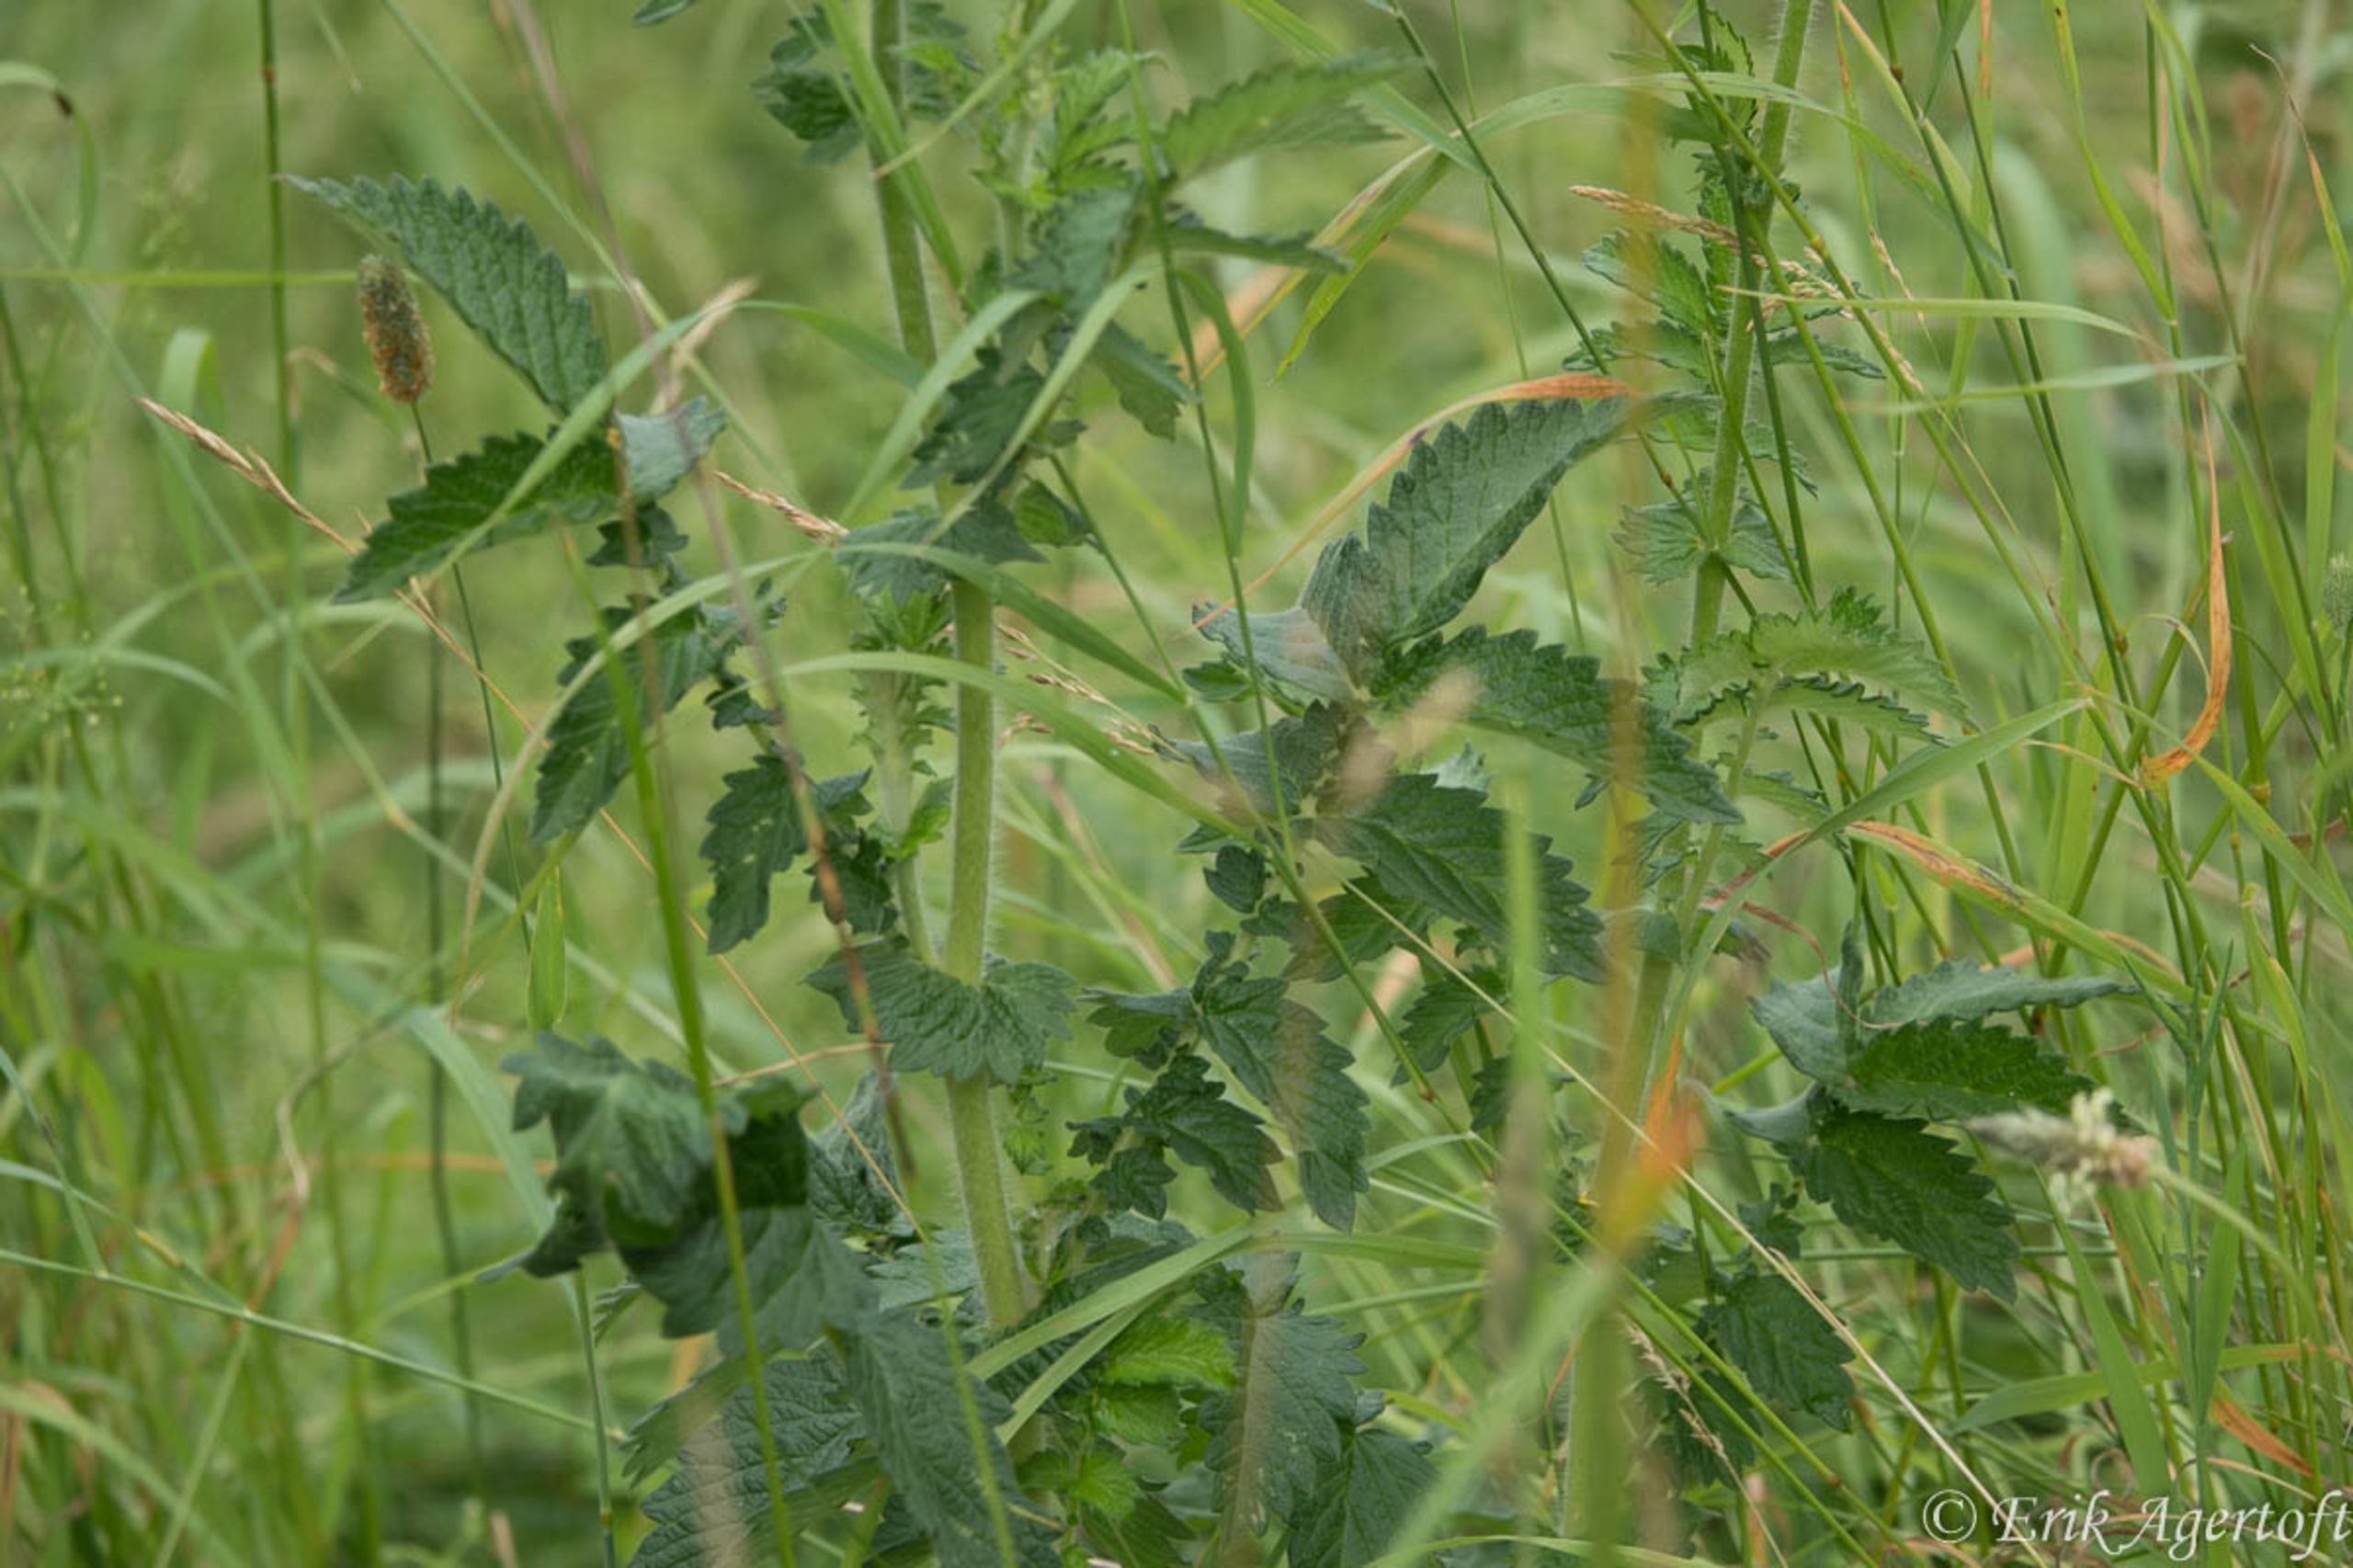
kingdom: Plantae
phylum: Tracheophyta
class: Magnoliopsida
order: Rosales
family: Rosaceae
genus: Agrimonia
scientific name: Agrimonia eupatoria
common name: Almindelig agermåne
